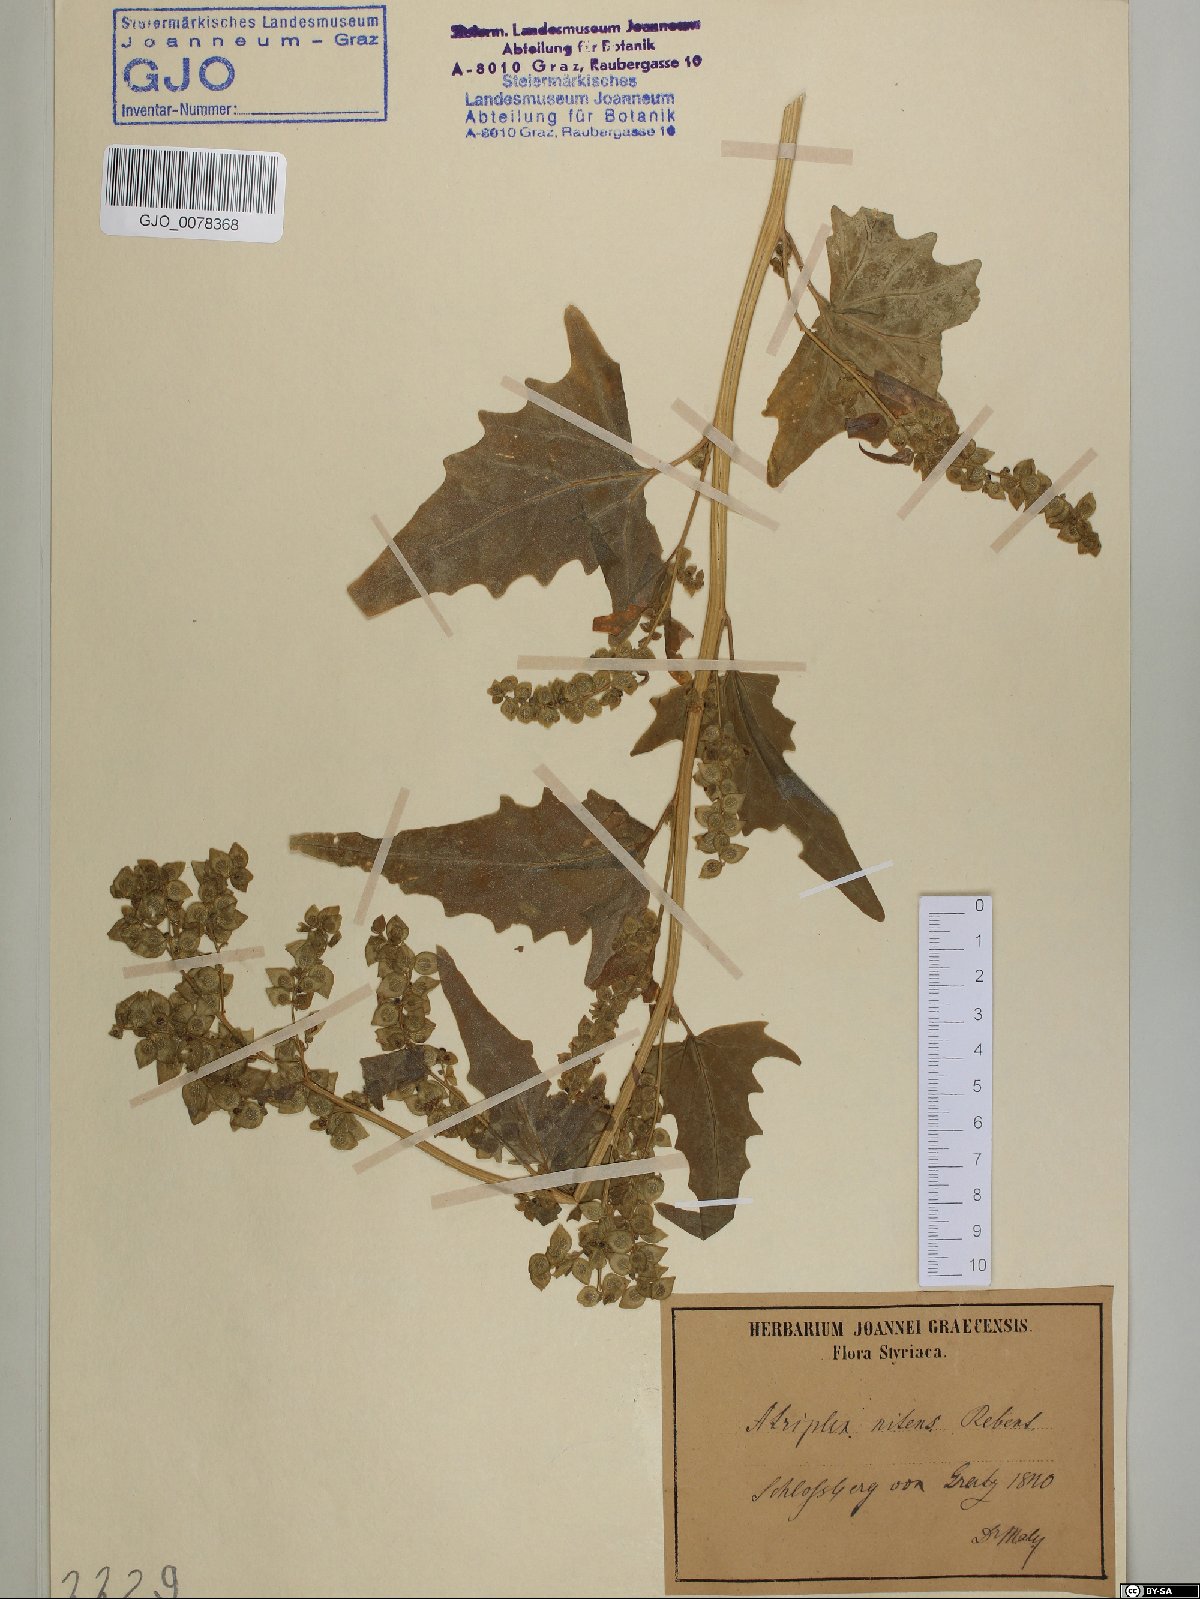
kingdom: Plantae
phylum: Tracheophyta
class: Magnoliopsida
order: Caryophyllales
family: Amaranthaceae
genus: Atriplex
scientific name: Atriplex sagittata
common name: Purple orache
